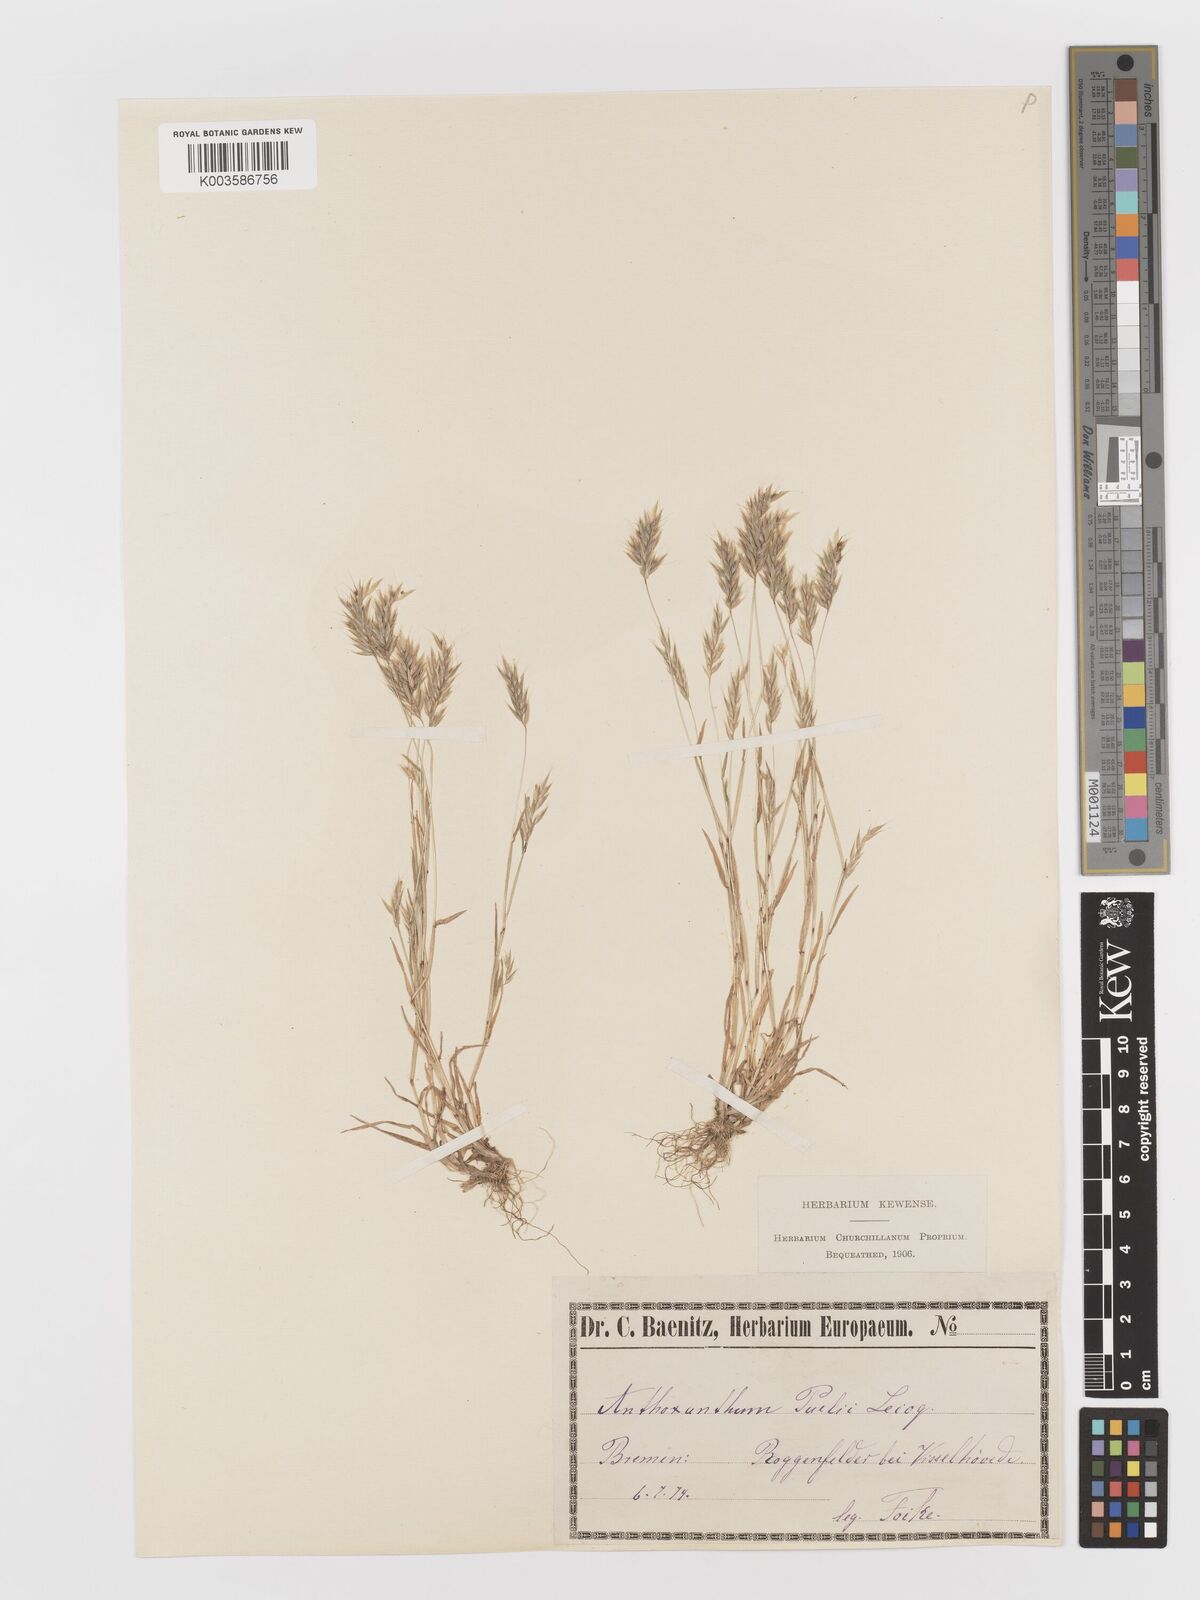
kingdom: Plantae
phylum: Tracheophyta
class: Liliopsida
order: Poales
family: Poaceae
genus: Anthoxanthum
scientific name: Anthoxanthum aristatum
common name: Annual vernal-grass
